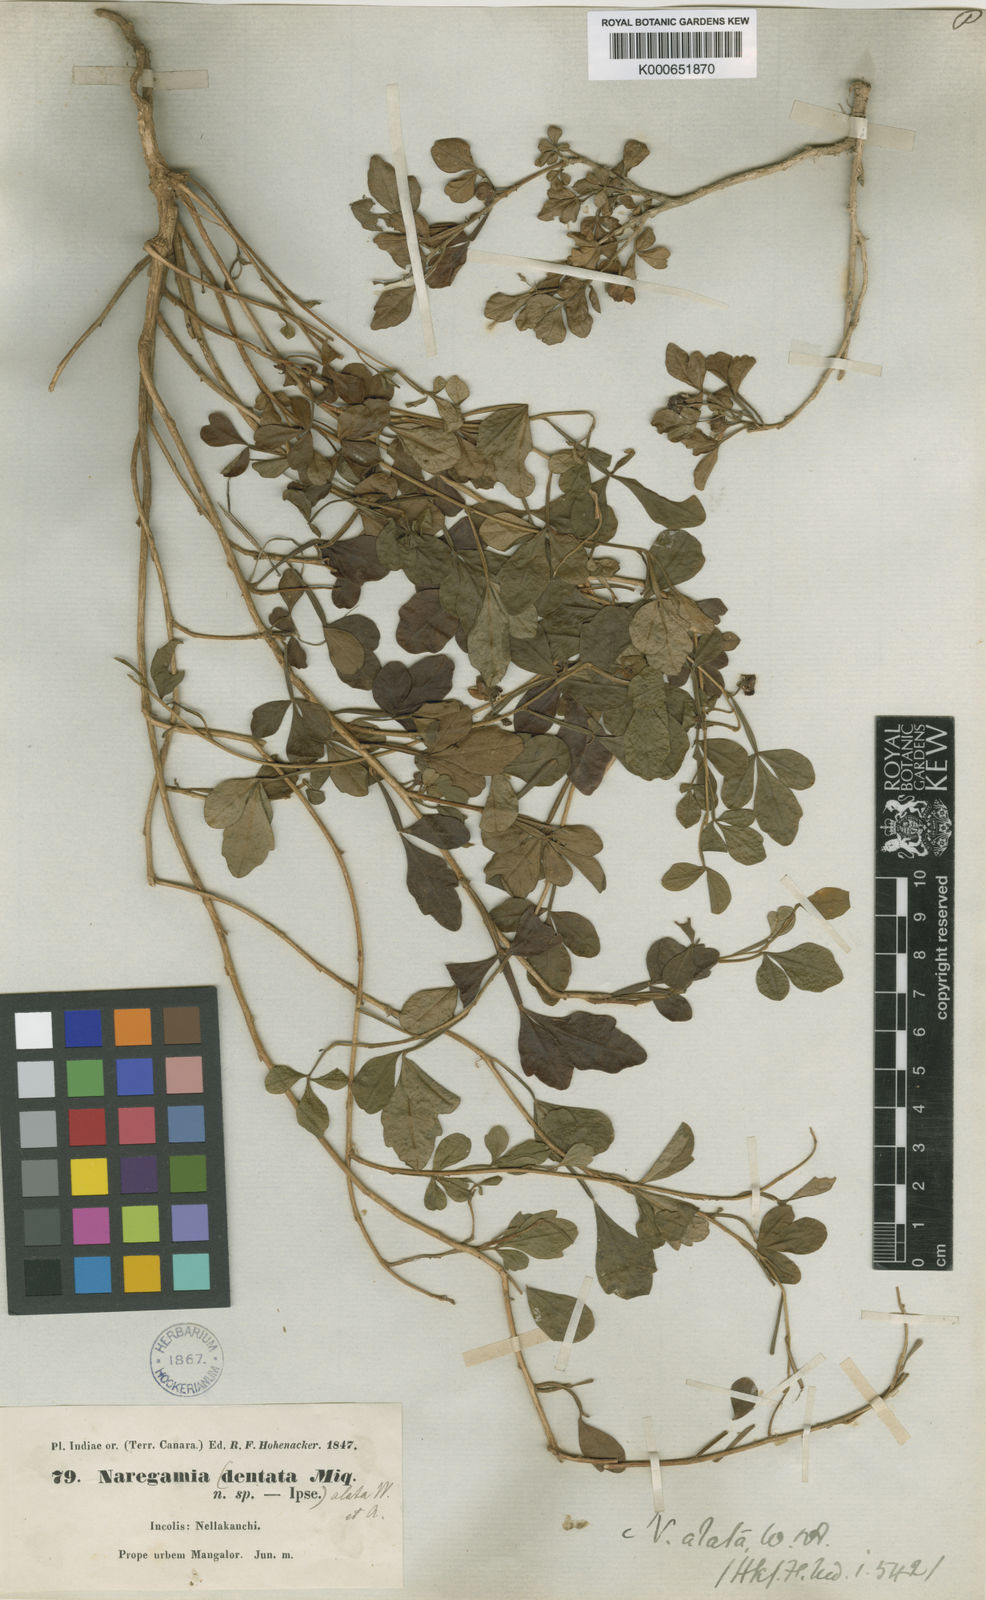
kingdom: Plantae
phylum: Tracheophyta
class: Magnoliopsida
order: Sapindales
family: Meliaceae
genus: Naregamia
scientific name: Naregamia alata
